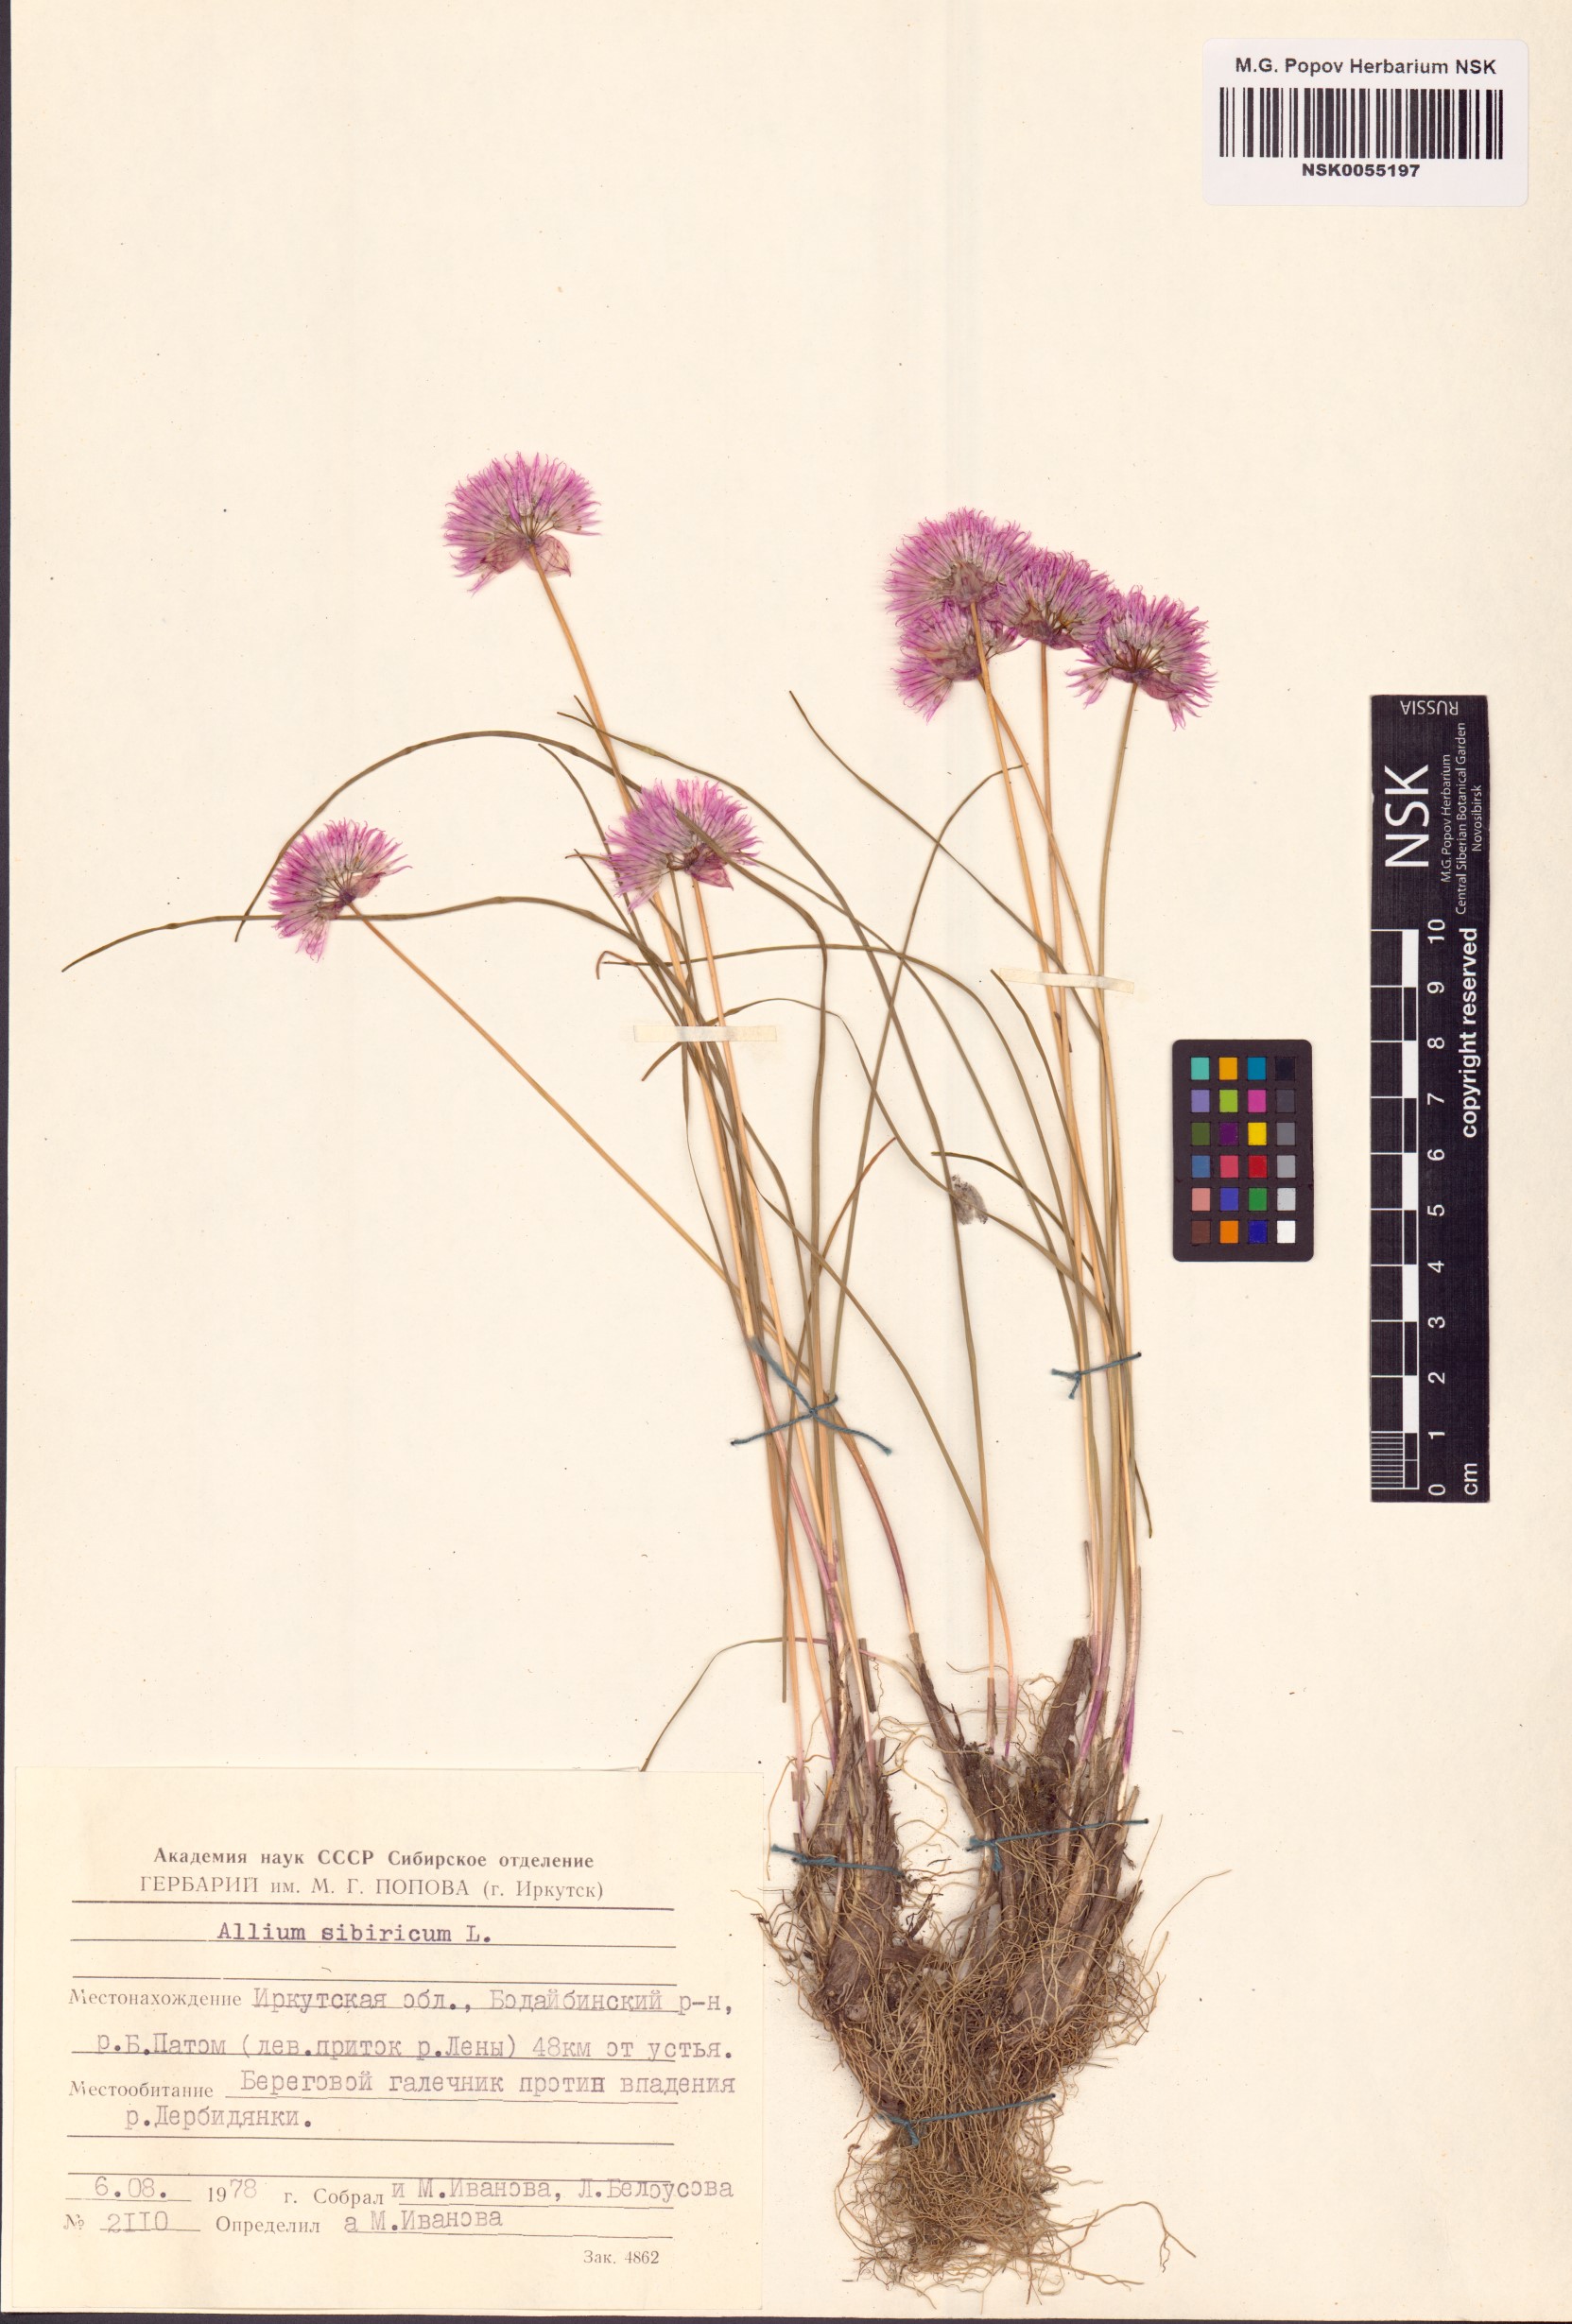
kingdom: Plantae
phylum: Tracheophyta
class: Liliopsida
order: Asparagales
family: Amaryllidaceae
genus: Allium
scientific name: Allium schoenoprasum
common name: Chives
